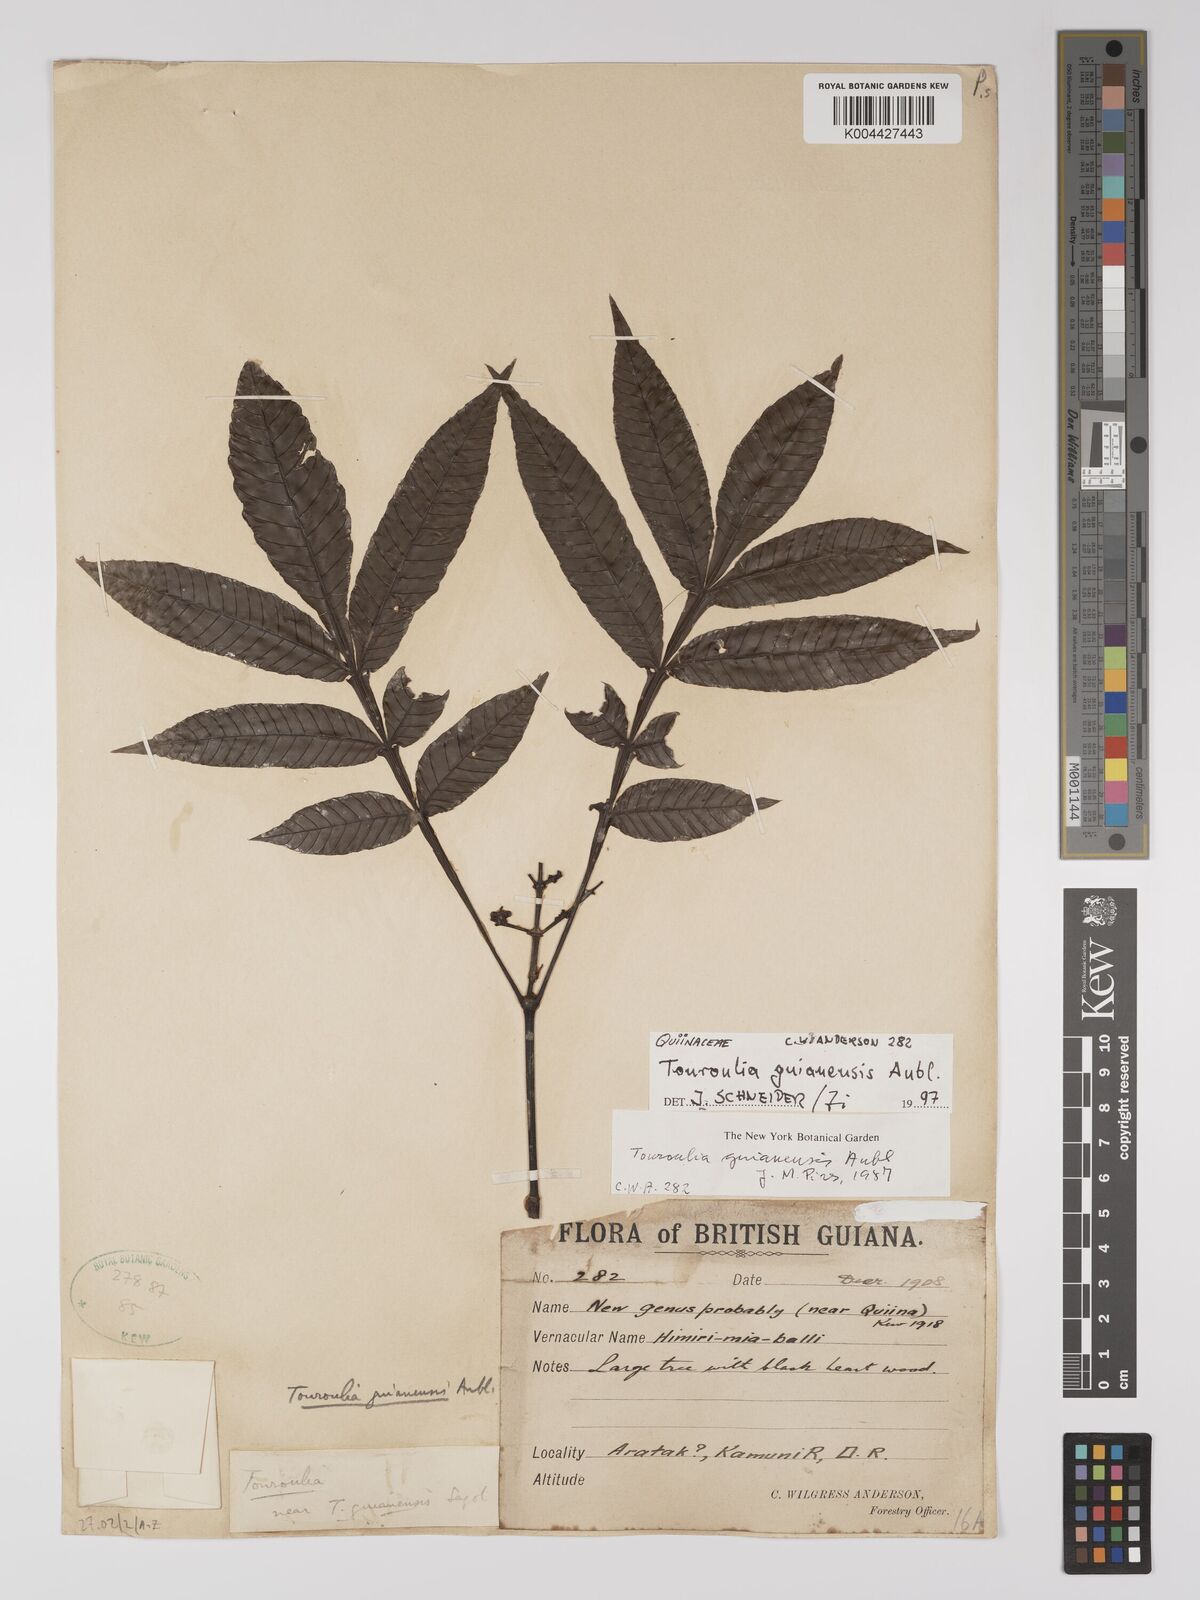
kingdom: Plantae
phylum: Tracheophyta
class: Magnoliopsida
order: Malpighiales
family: Quiinaceae
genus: Touroulia
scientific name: Touroulia guianensis
